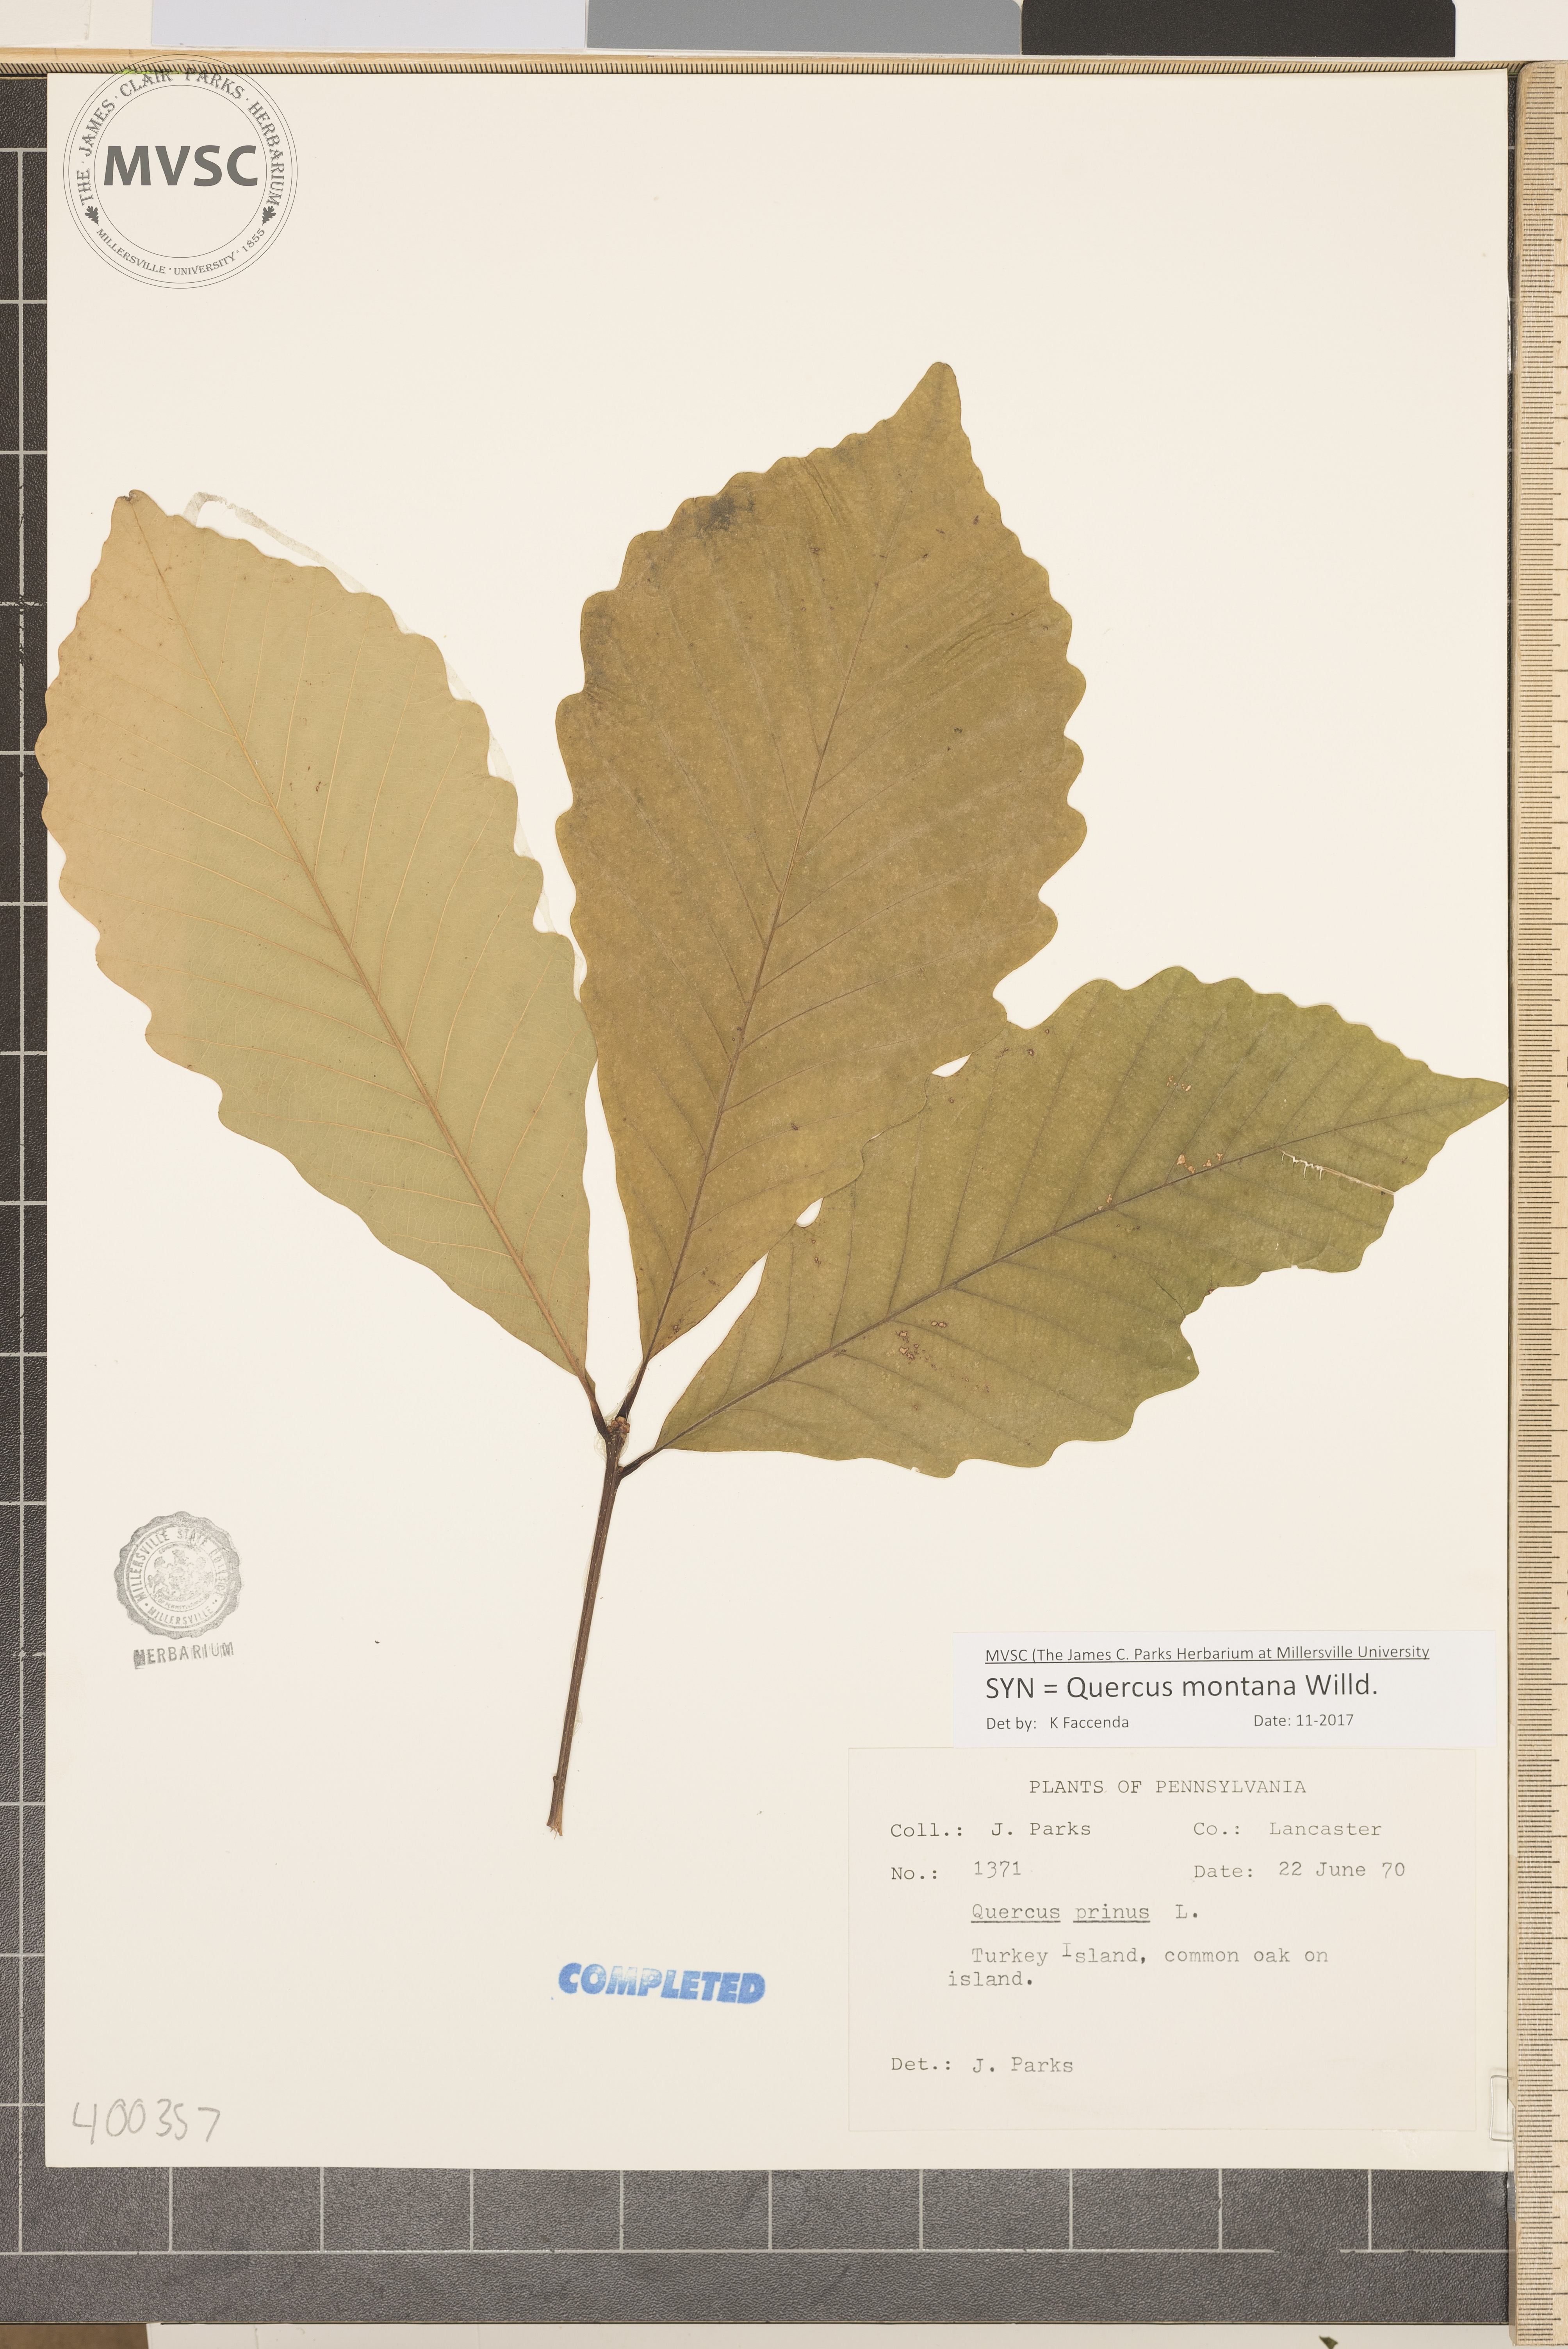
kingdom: Plantae
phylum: Tracheophyta
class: Magnoliopsida
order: Fagales
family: Fagaceae
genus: Quercus
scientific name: Quercus montana
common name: chestnut oak
